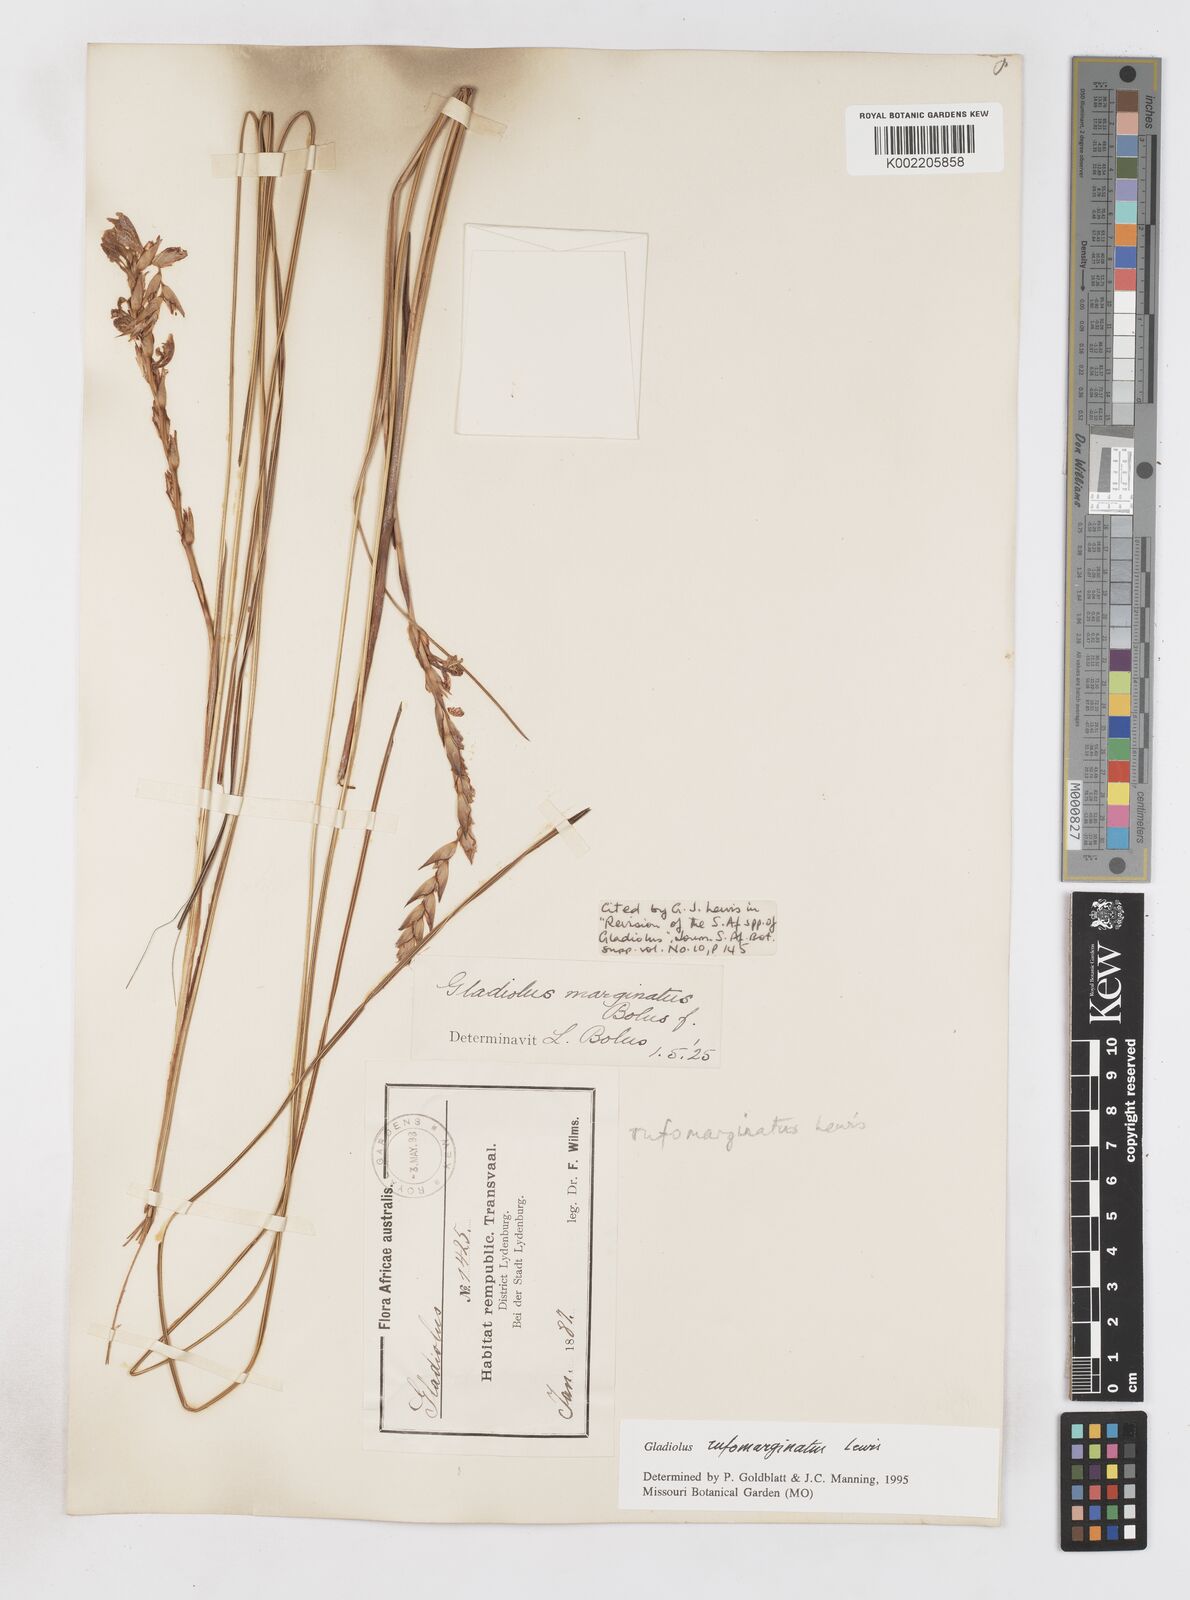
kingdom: Plantae
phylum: Tracheophyta
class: Liliopsida
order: Asparagales
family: Iridaceae
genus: Gladiolus
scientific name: Gladiolus rufomarginatus
